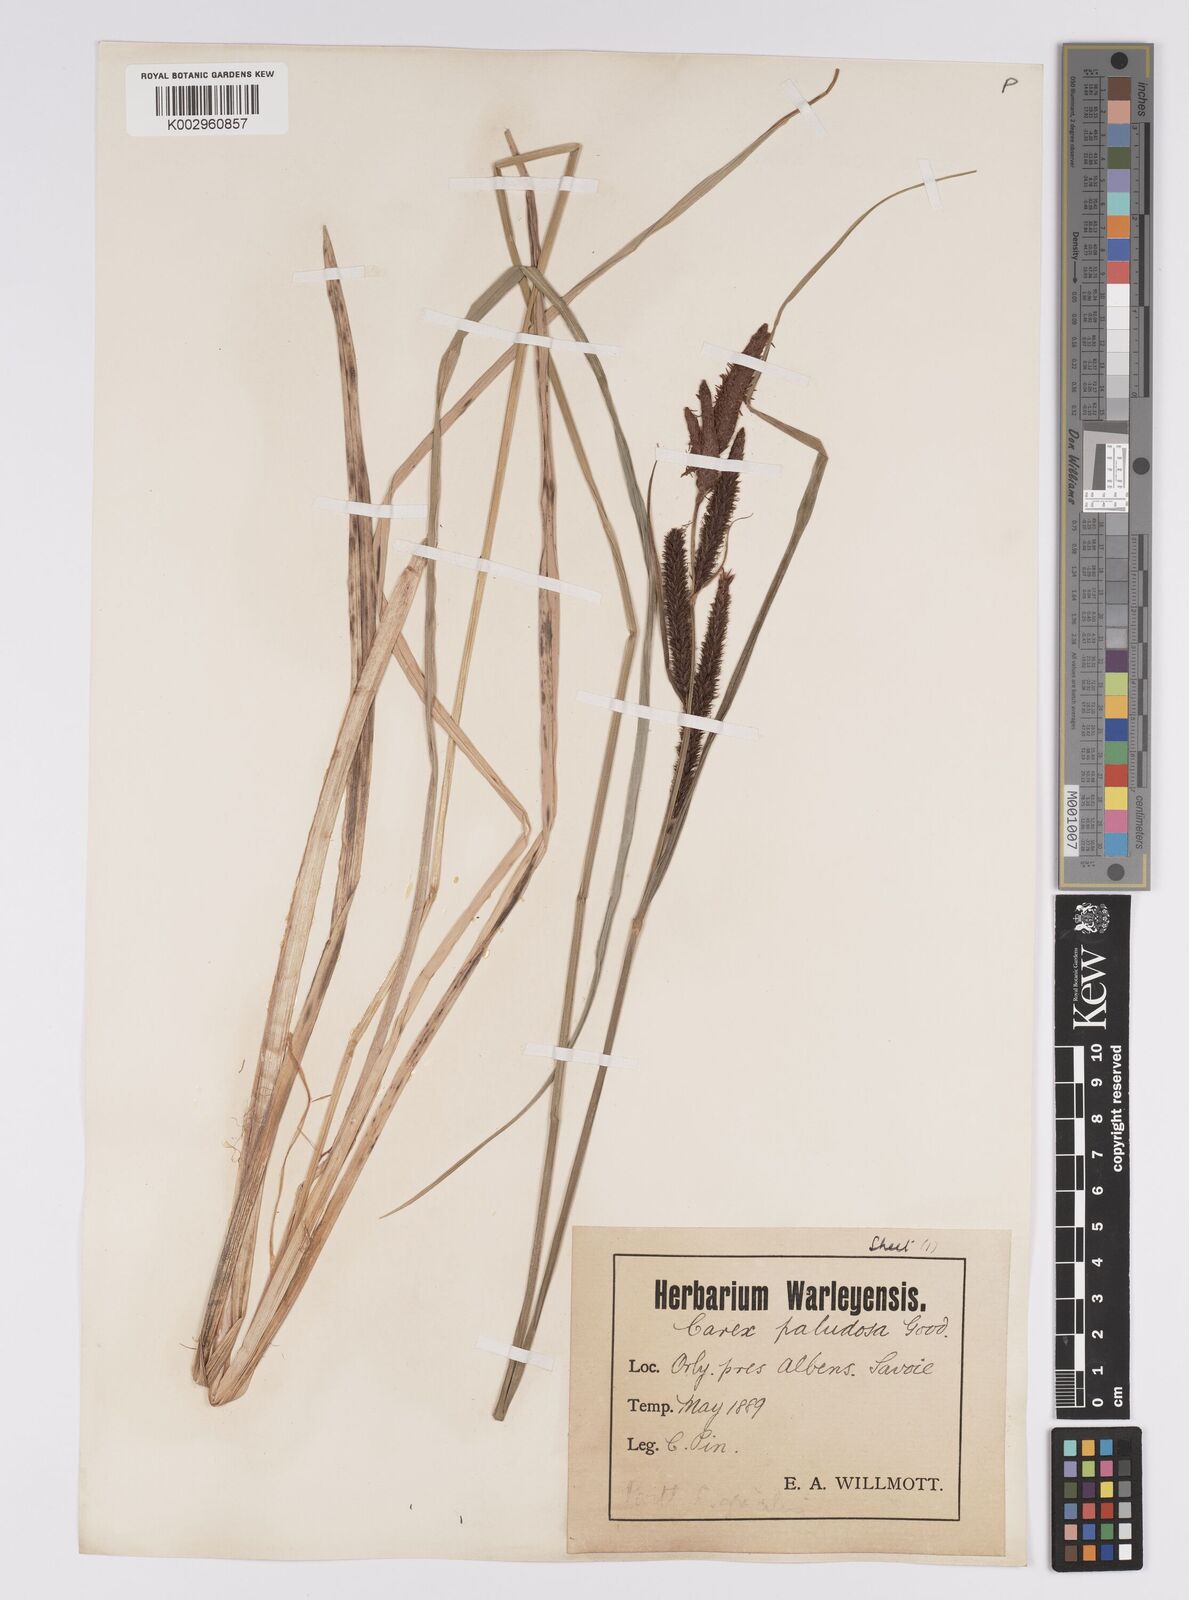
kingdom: Plantae
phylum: Tracheophyta
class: Liliopsida
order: Poales
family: Cyperaceae
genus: Carex
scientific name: Carex acutiformis
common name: Lesser pond-sedge
